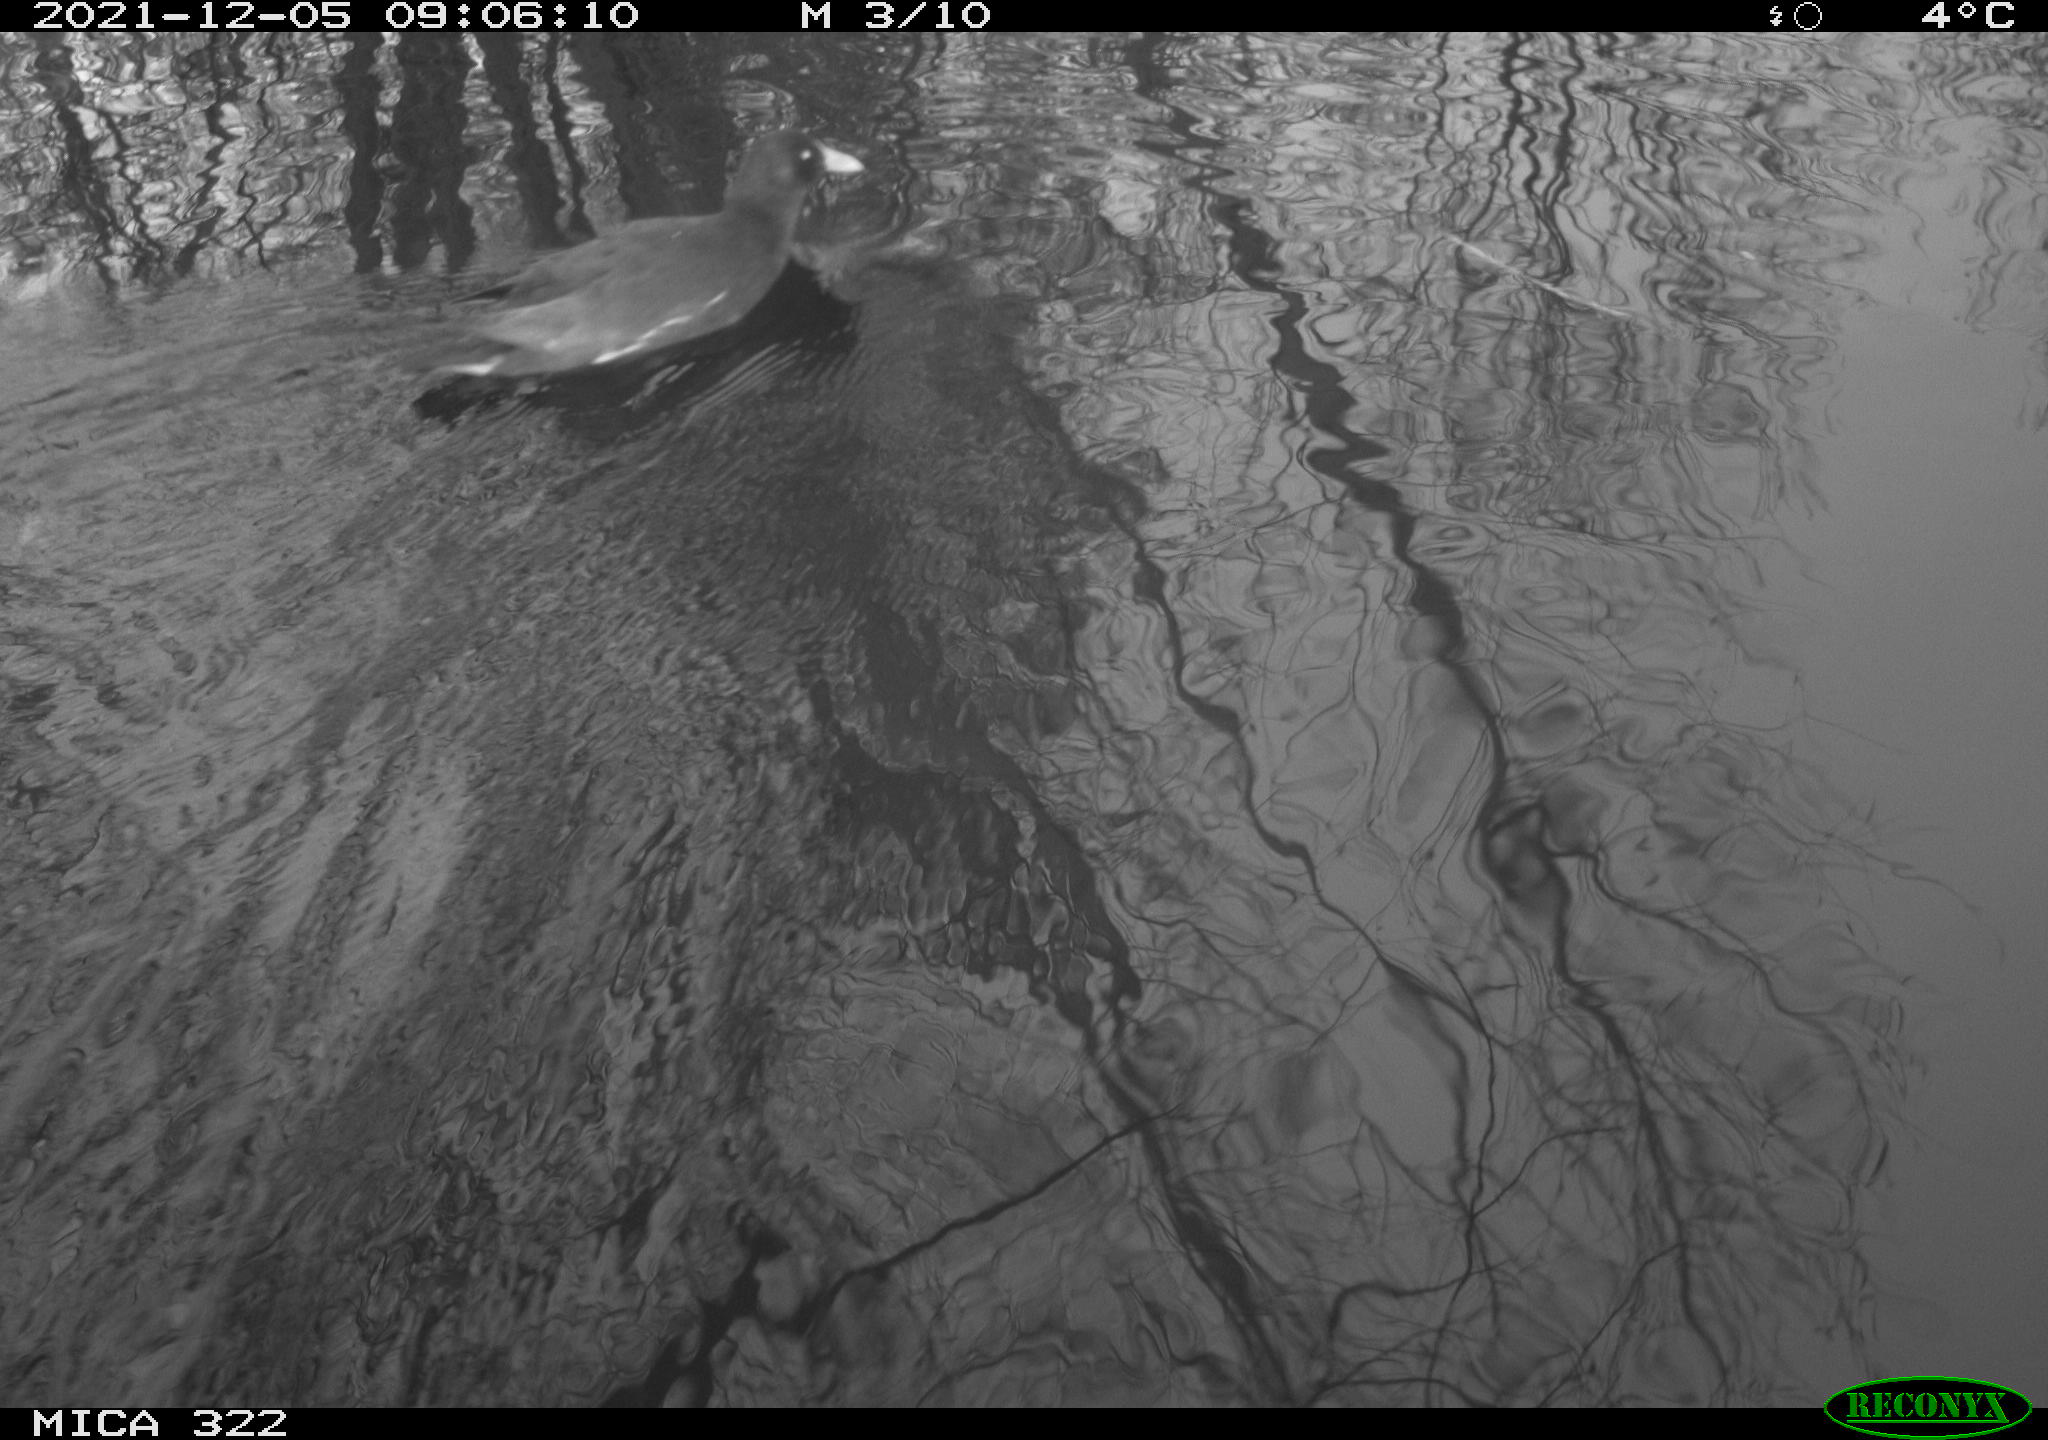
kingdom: Animalia
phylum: Chordata
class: Aves
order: Gruiformes
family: Rallidae
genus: Gallinula
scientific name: Gallinula chloropus
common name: Common moorhen
